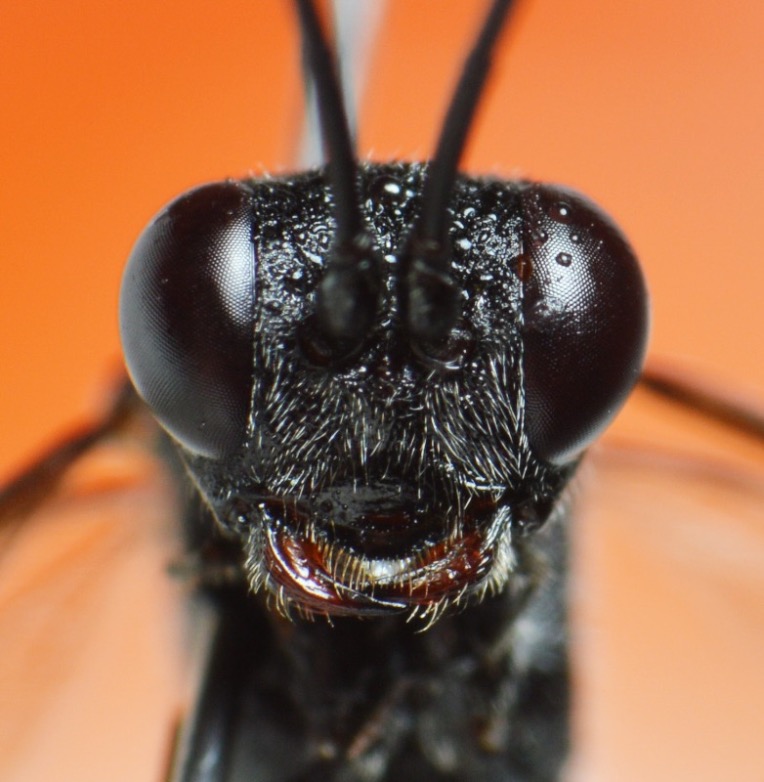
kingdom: Animalia
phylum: Arthropoda
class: Insecta
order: Hymenoptera
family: Ichneumonidae
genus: Stenarella
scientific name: Stenarella domator
